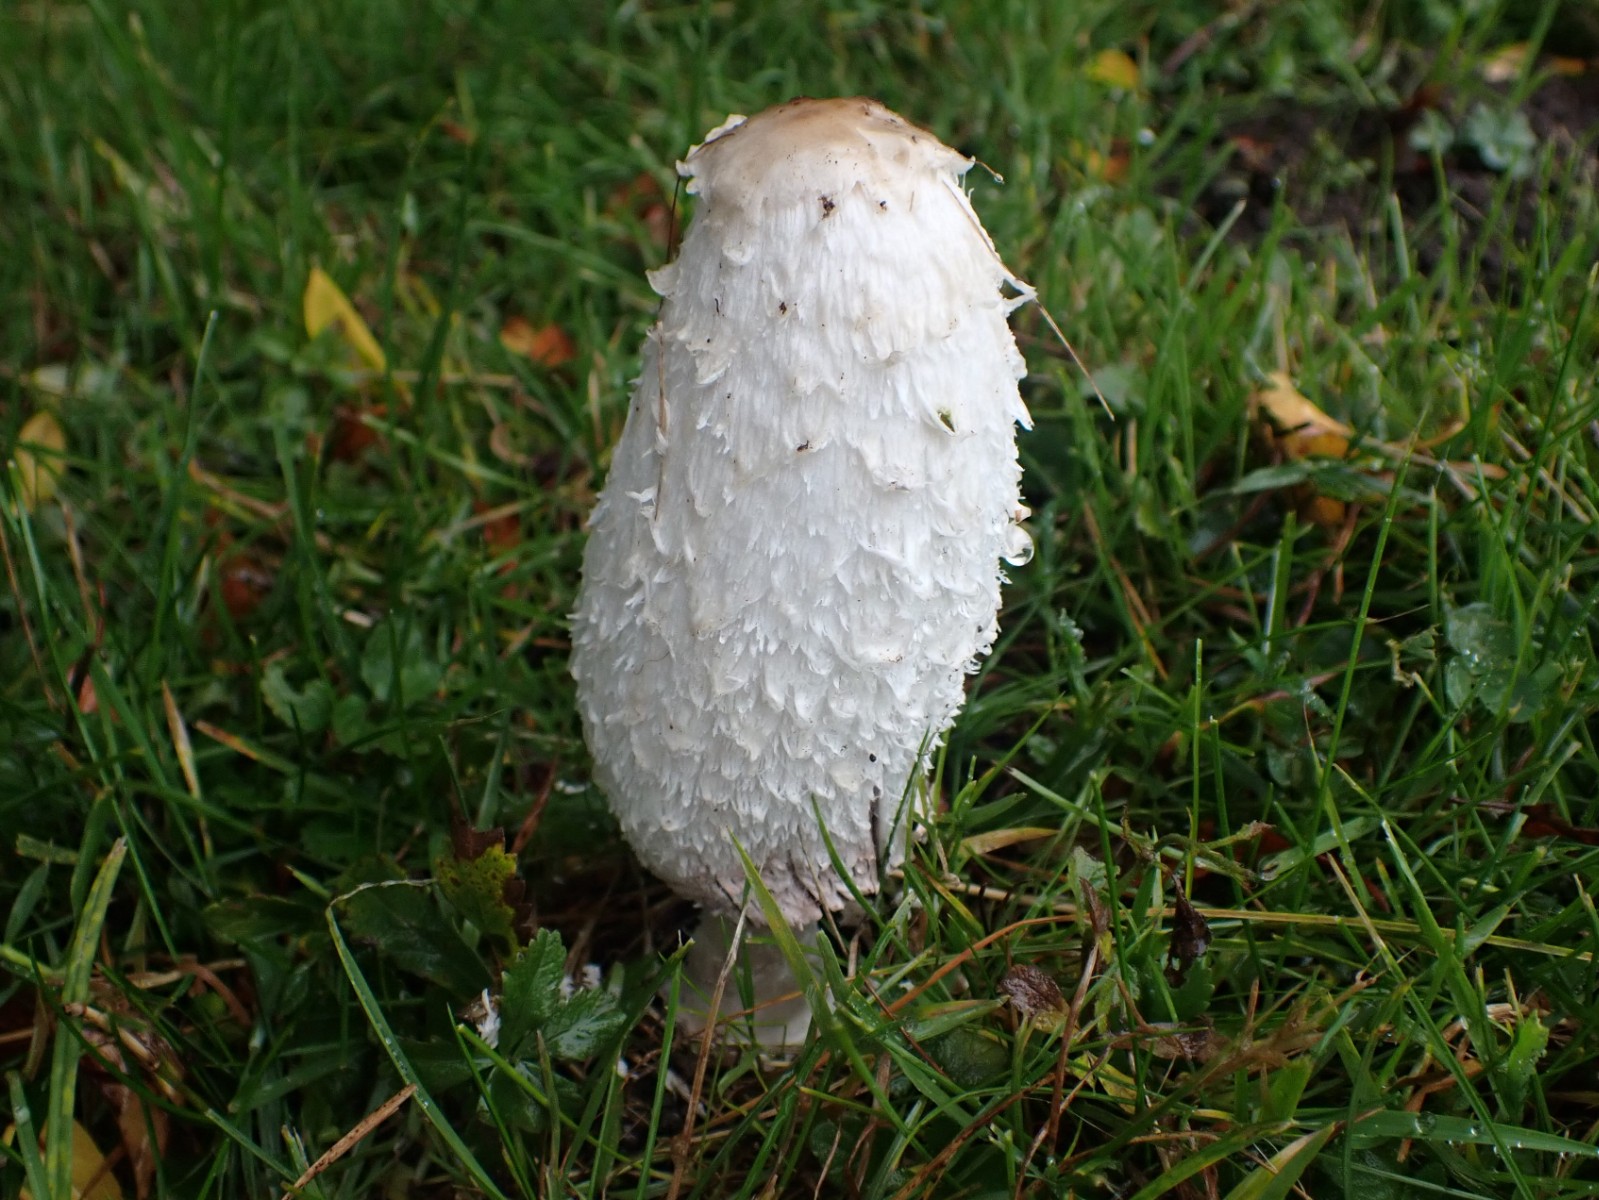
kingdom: Fungi
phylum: Basidiomycota
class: Agaricomycetes
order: Agaricales
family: Agaricaceae
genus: Coprinus
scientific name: Coprinus comatus
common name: stor parykhat
